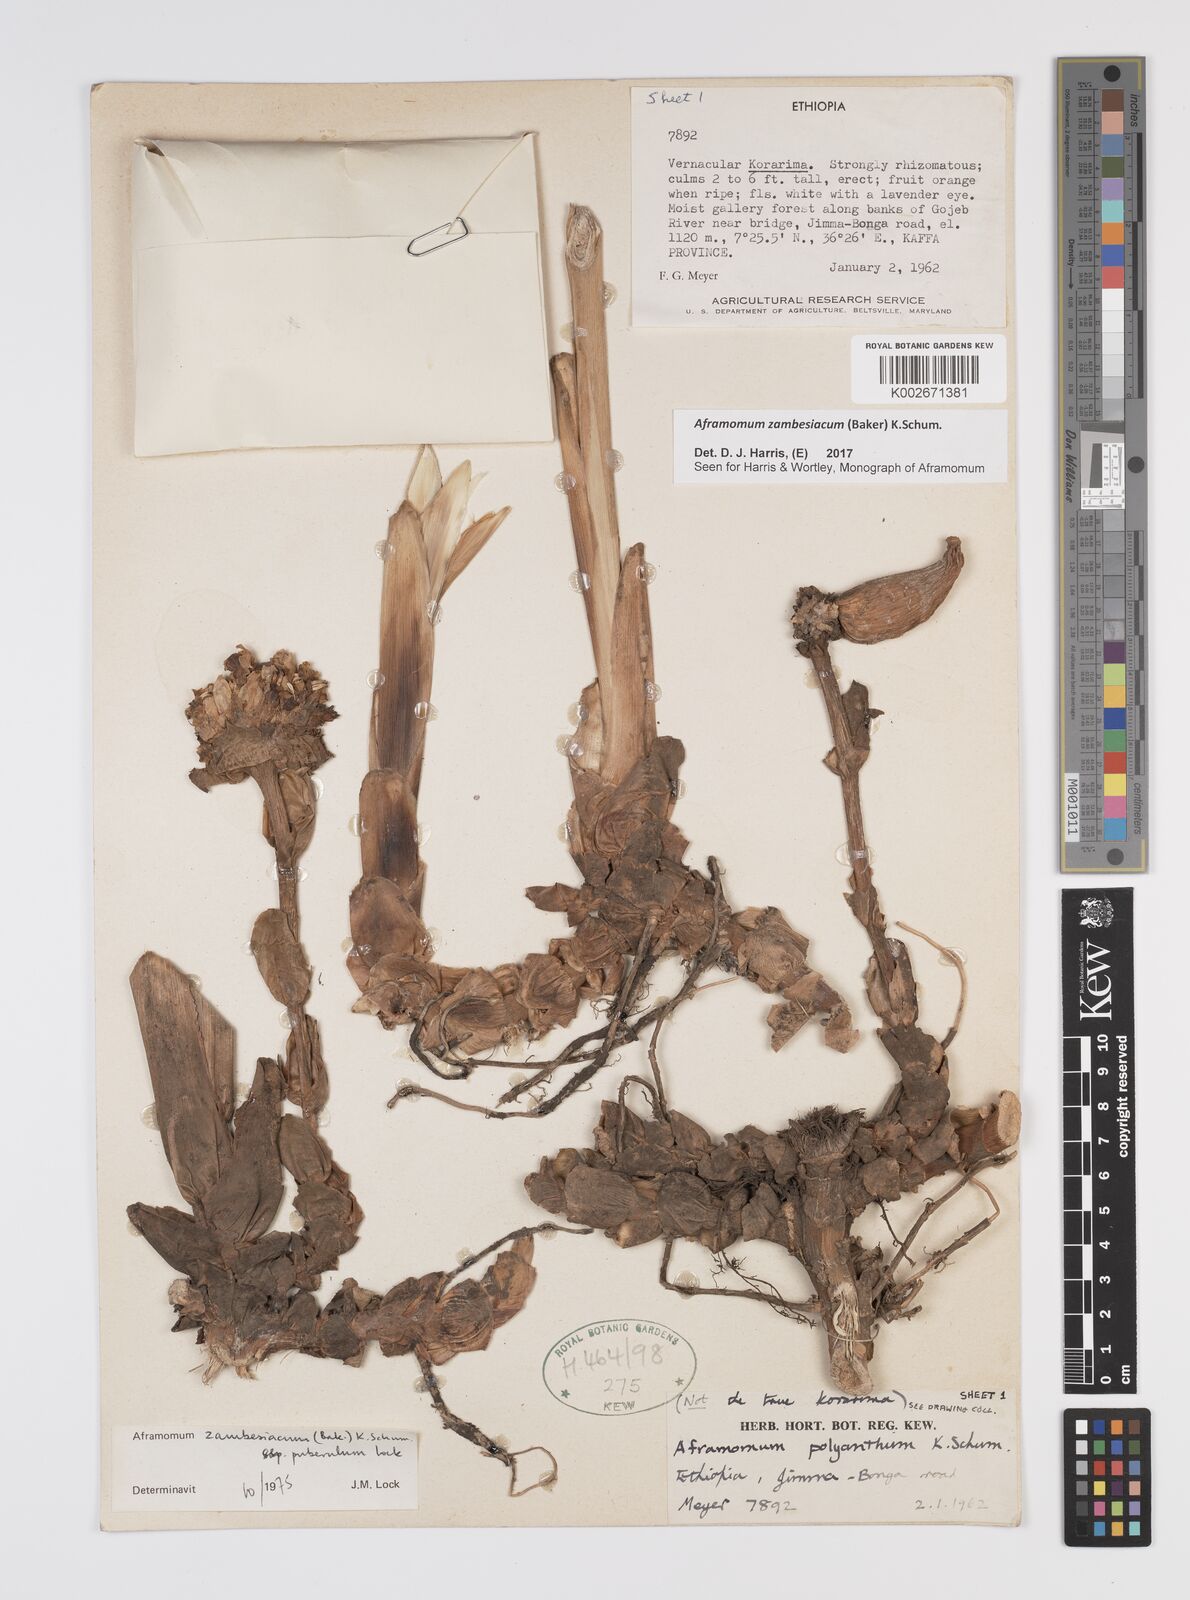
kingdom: Plantae
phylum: Tracheophyta
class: Liliopsida
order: Zingiberales
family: Zingiberaceae
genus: Aframomum
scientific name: Aframomum zambesiacum
